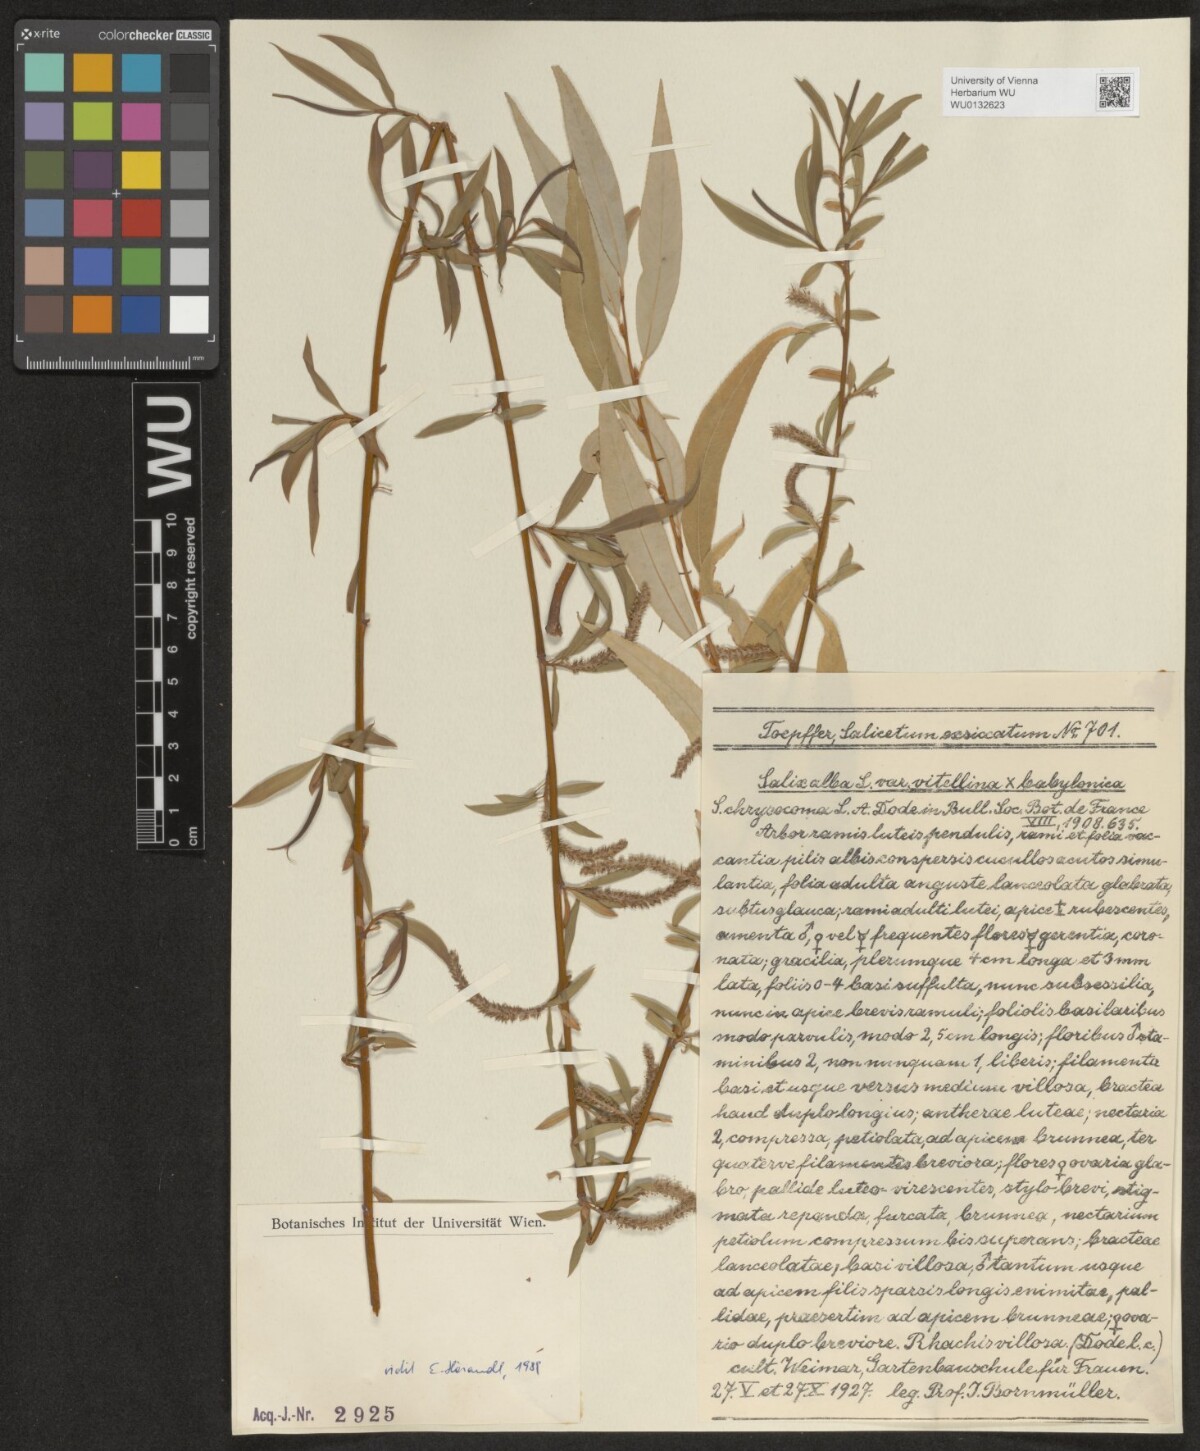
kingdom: Plantae
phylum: Tracheophyta
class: Magnoliopsida
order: Malpighiales
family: Salicaceae
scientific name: Salicaceae
